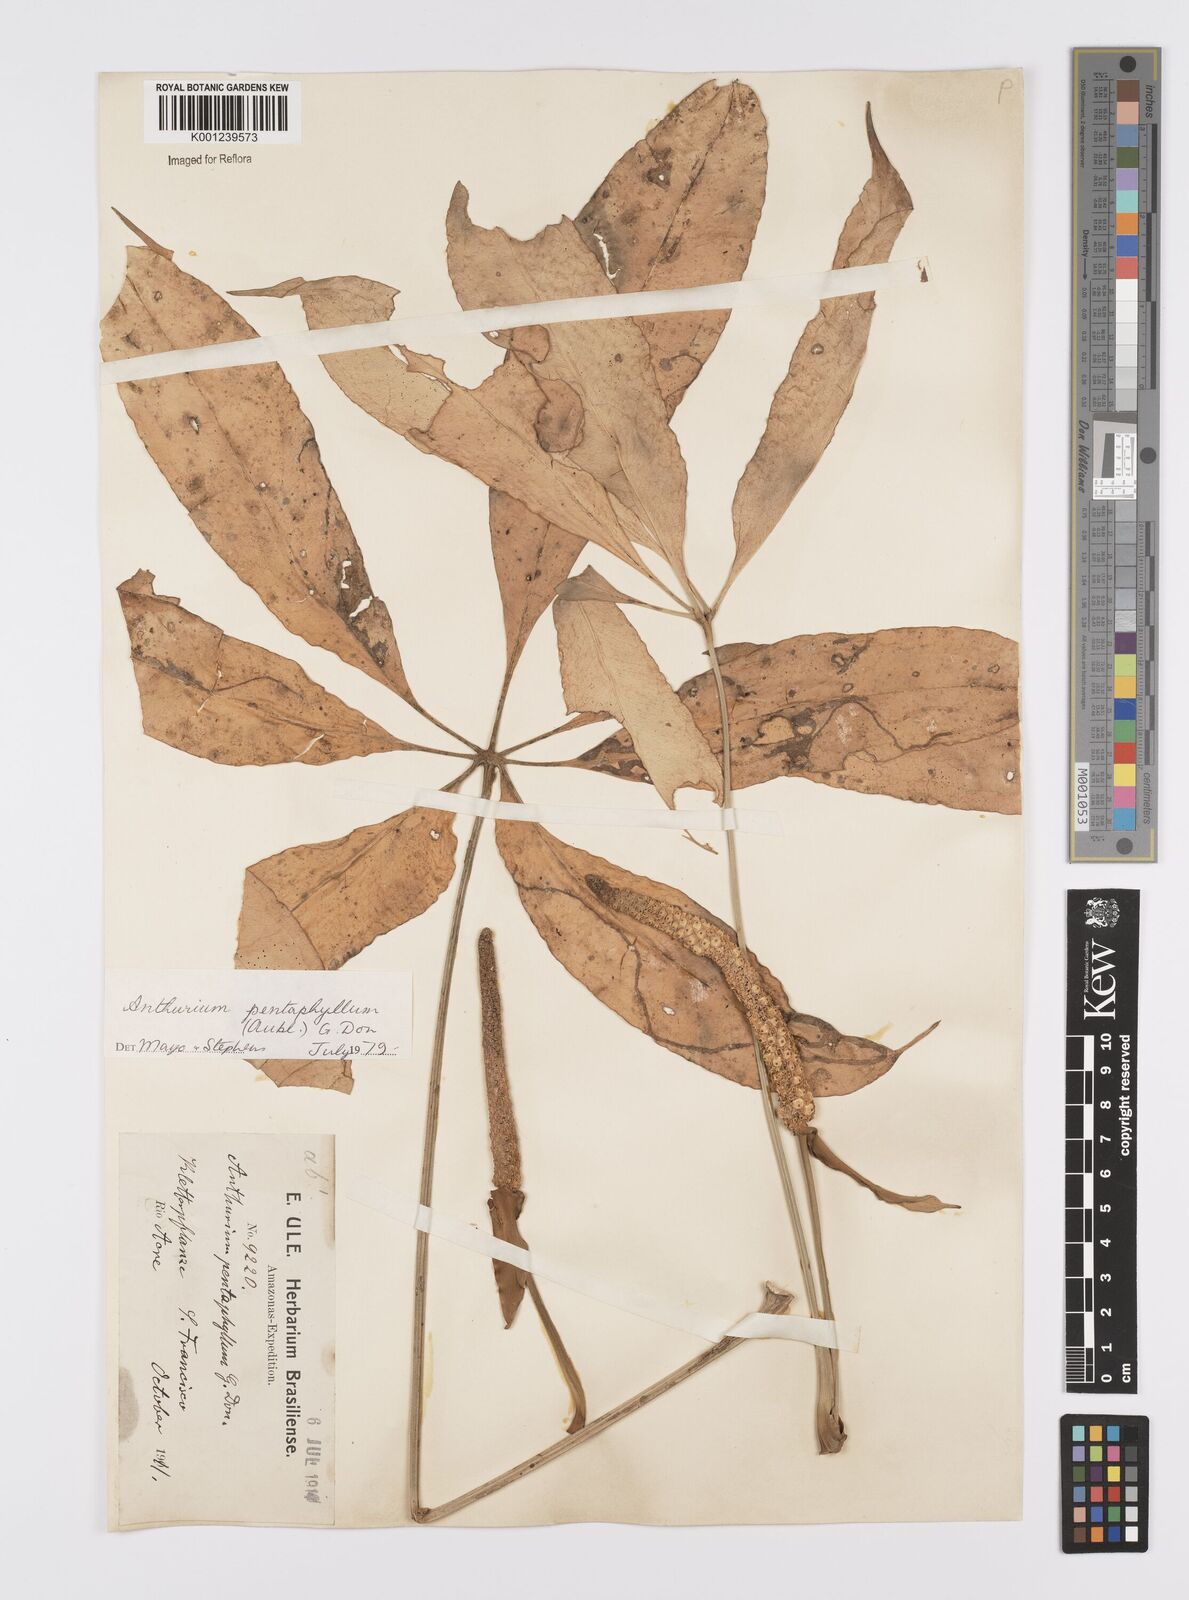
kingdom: Plantae
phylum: Tracheophyta
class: Liliopsida
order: Alismatales
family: Araceae
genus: Anthurium
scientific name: Anthurium pentaphyllum
